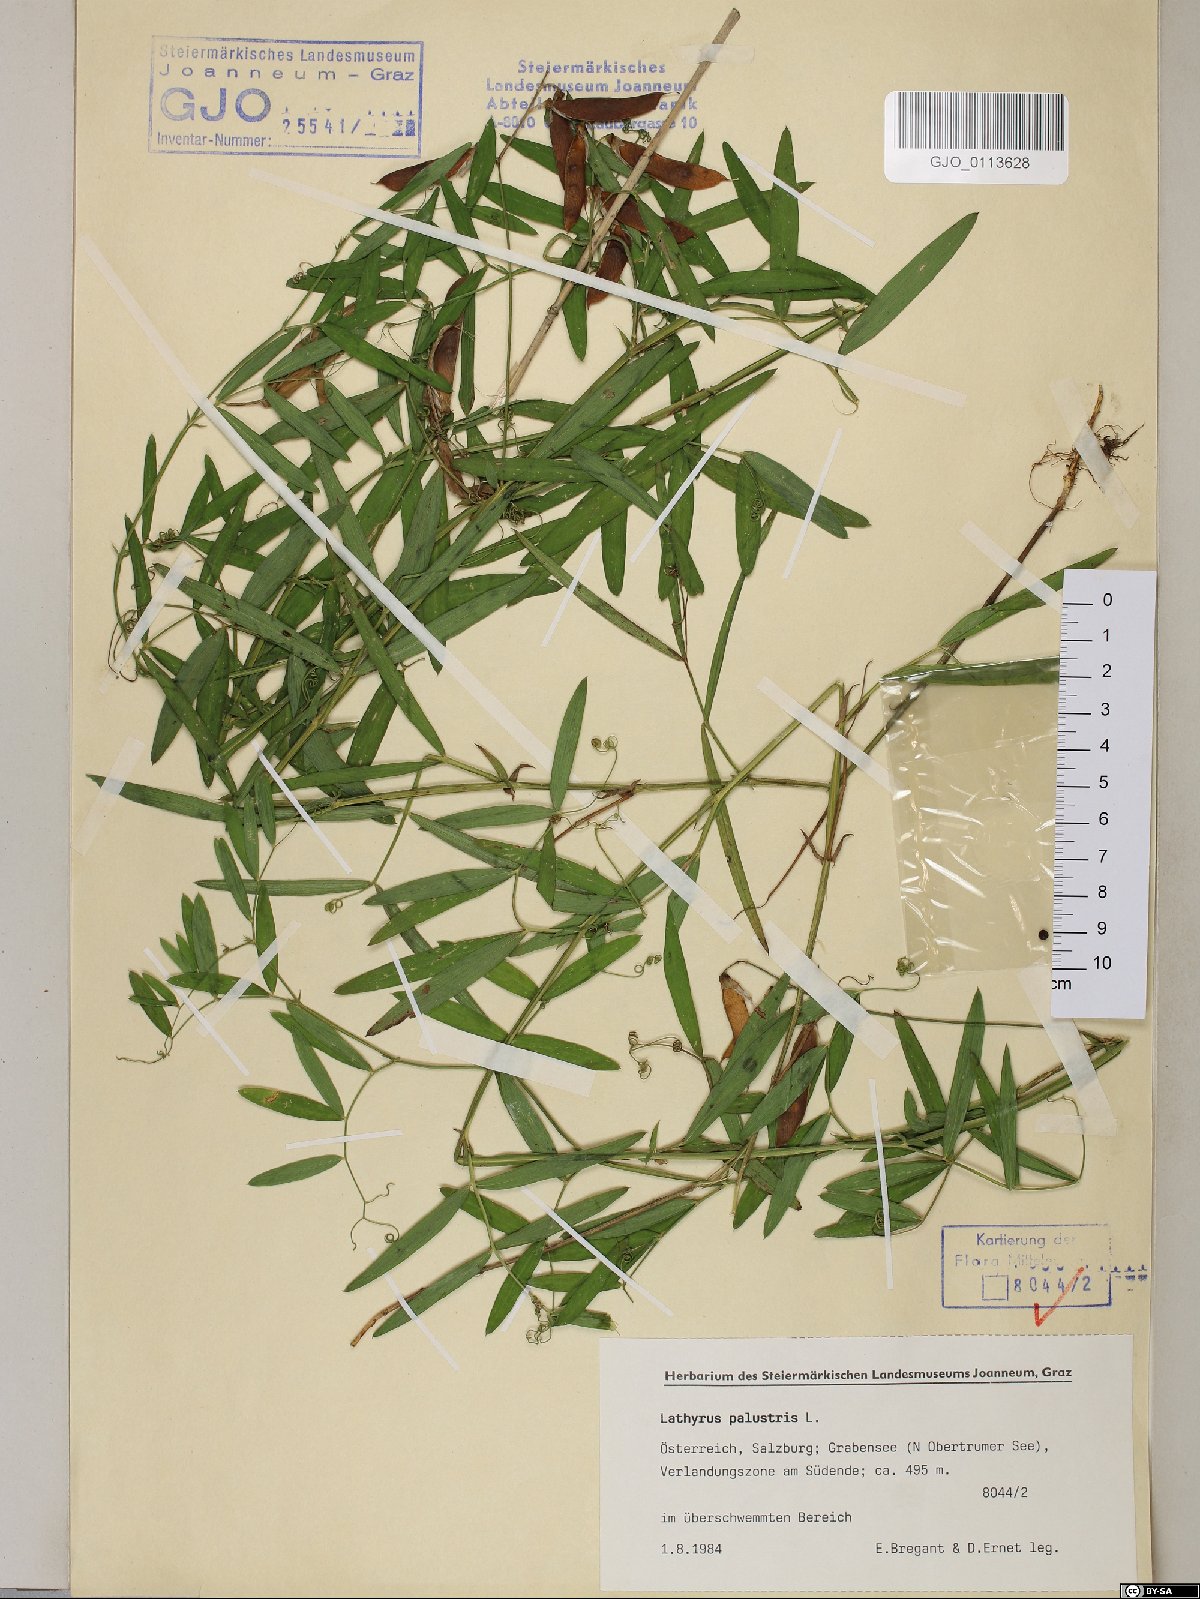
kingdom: Plantae
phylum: Tracheophyta
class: Magnoliopsida
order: Fabales
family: Fabaceae
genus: Lathyrus
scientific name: Lathyrus palustris
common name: Marsh pea
